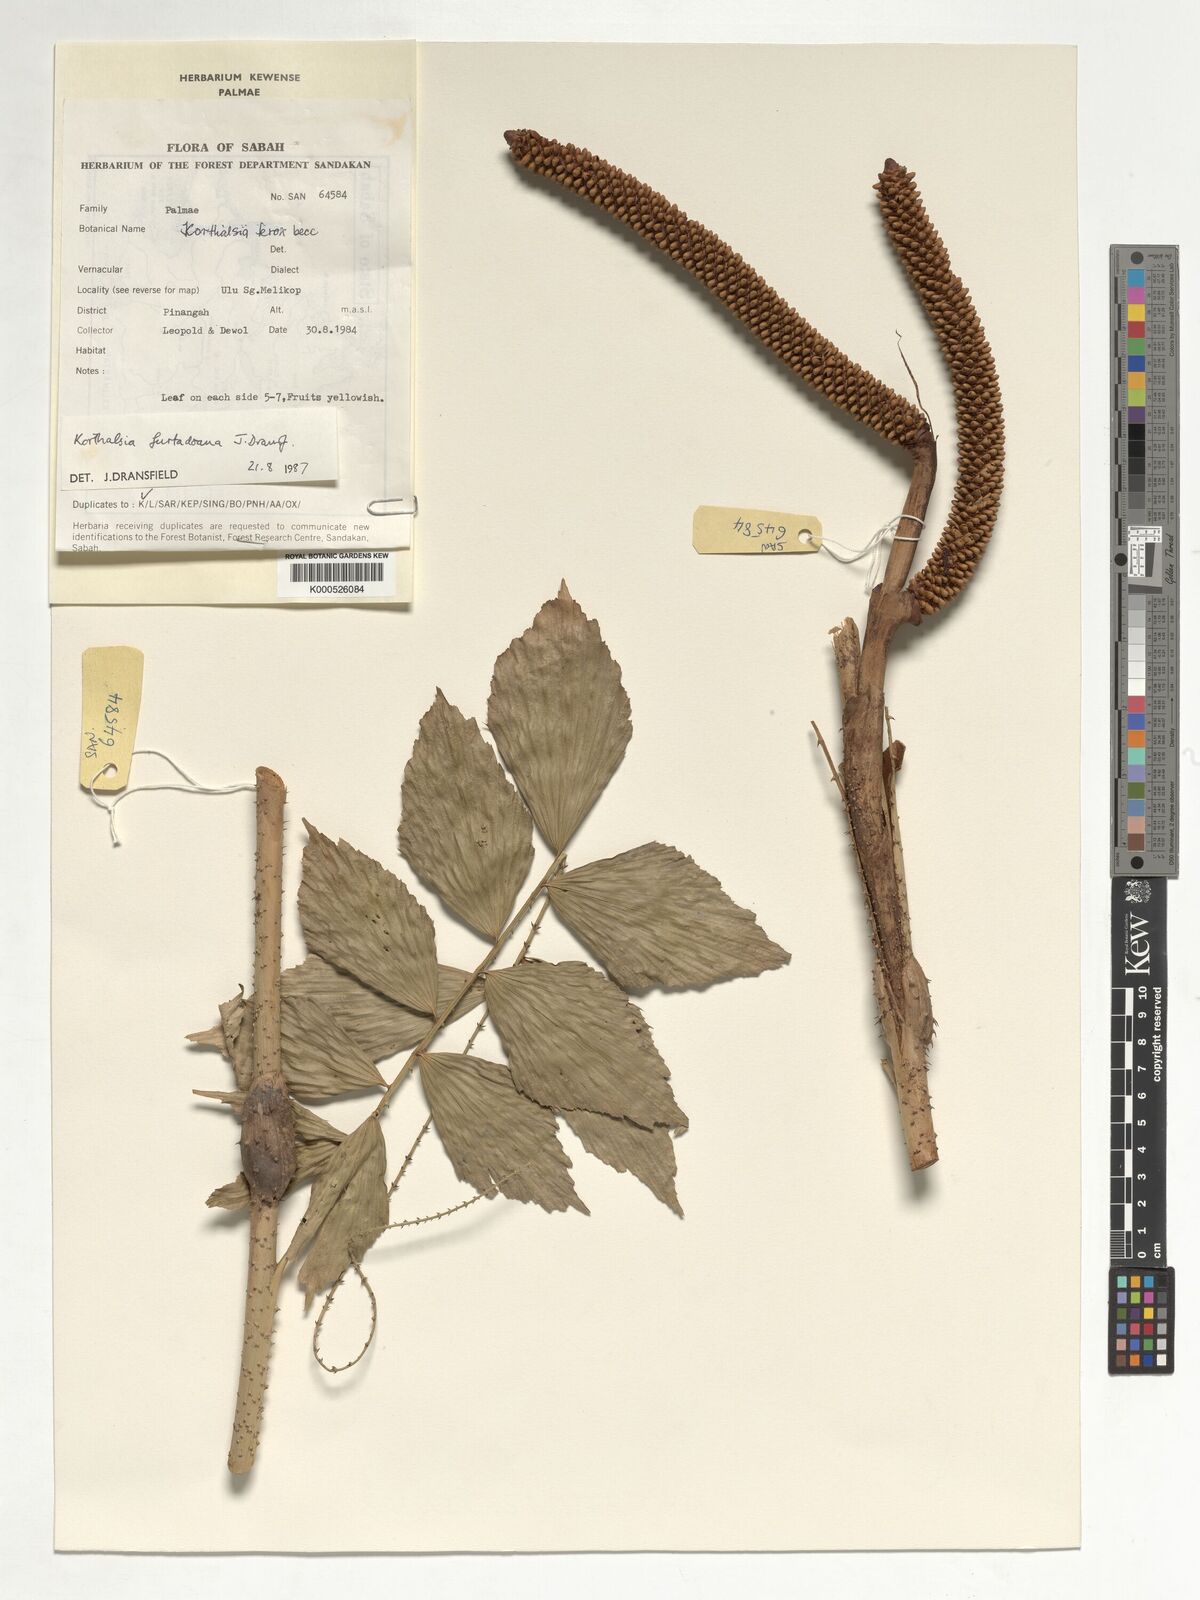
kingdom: Plantae
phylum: Tracheophyta
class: Liliopsida
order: Arecales
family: Arecaceae
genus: Korthalsia
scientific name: Korthalsia furtadoana
